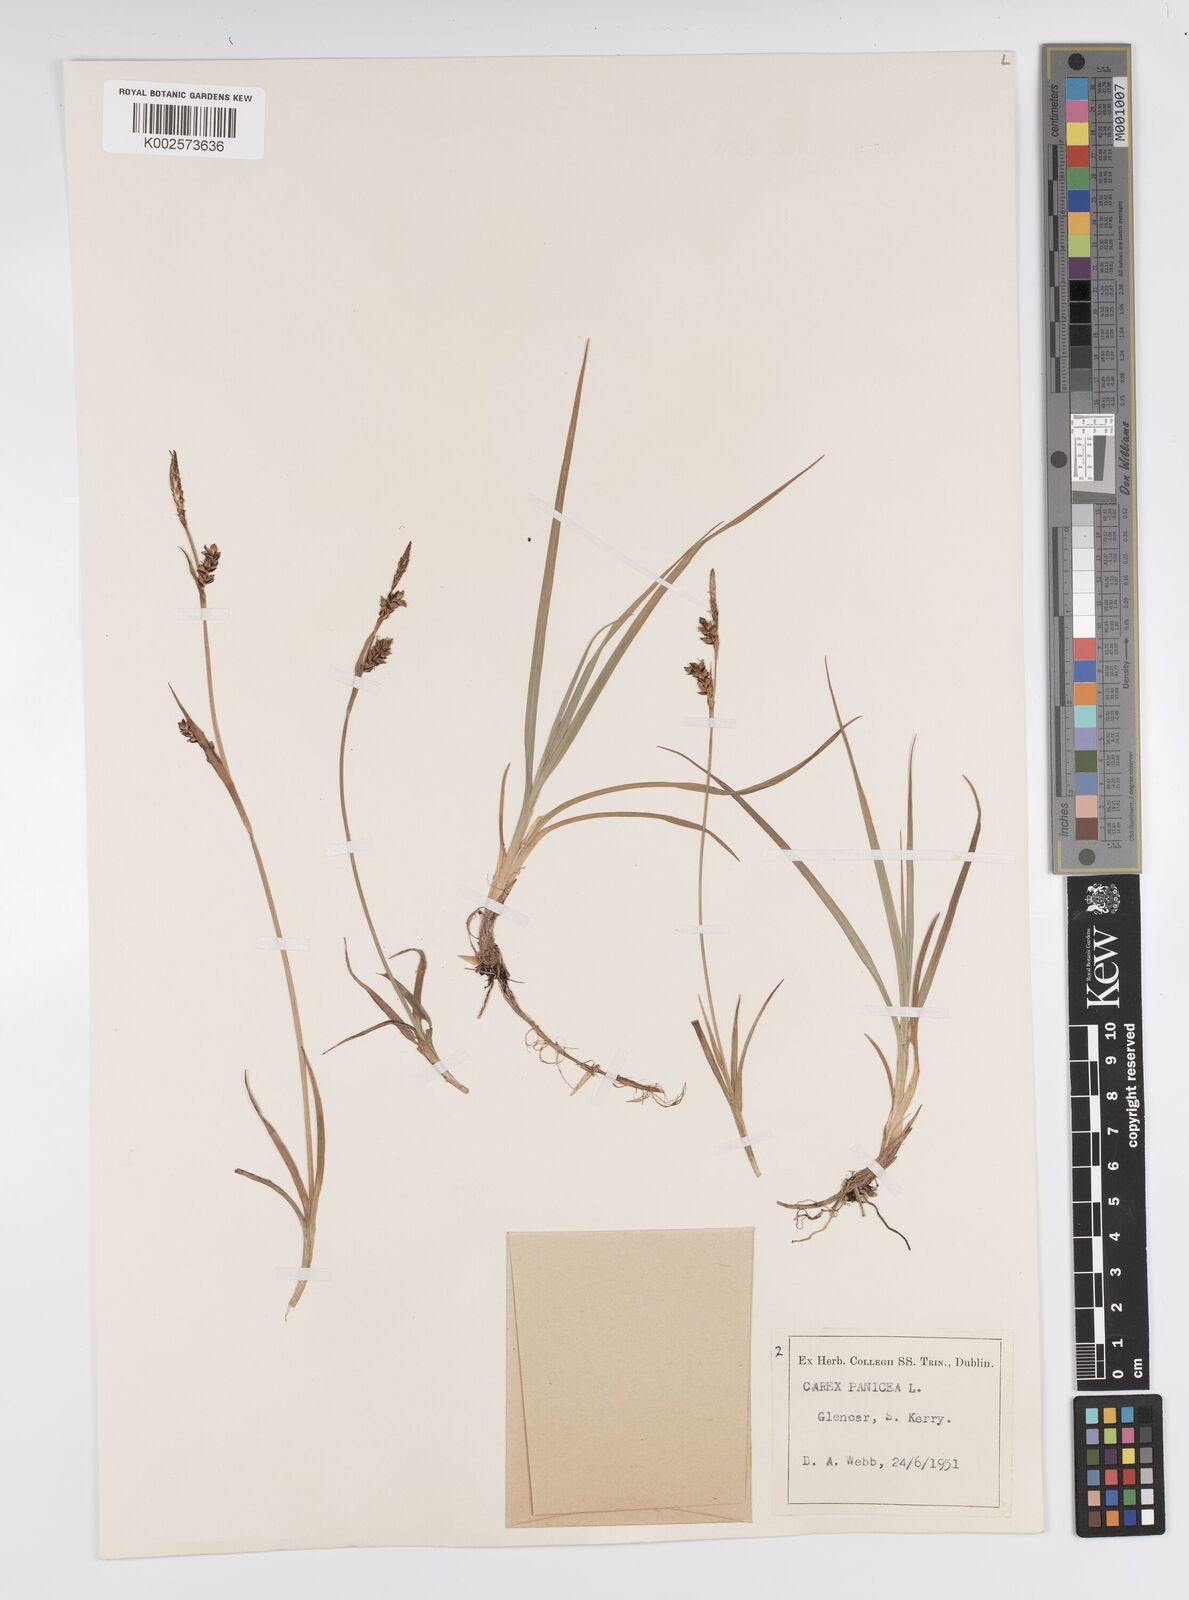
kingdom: Plantae
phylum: Tracheophyta
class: Liliopsida
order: Poales
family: Cyperaceae
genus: Carex
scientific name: Carex panicea
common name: Carnation sedge
